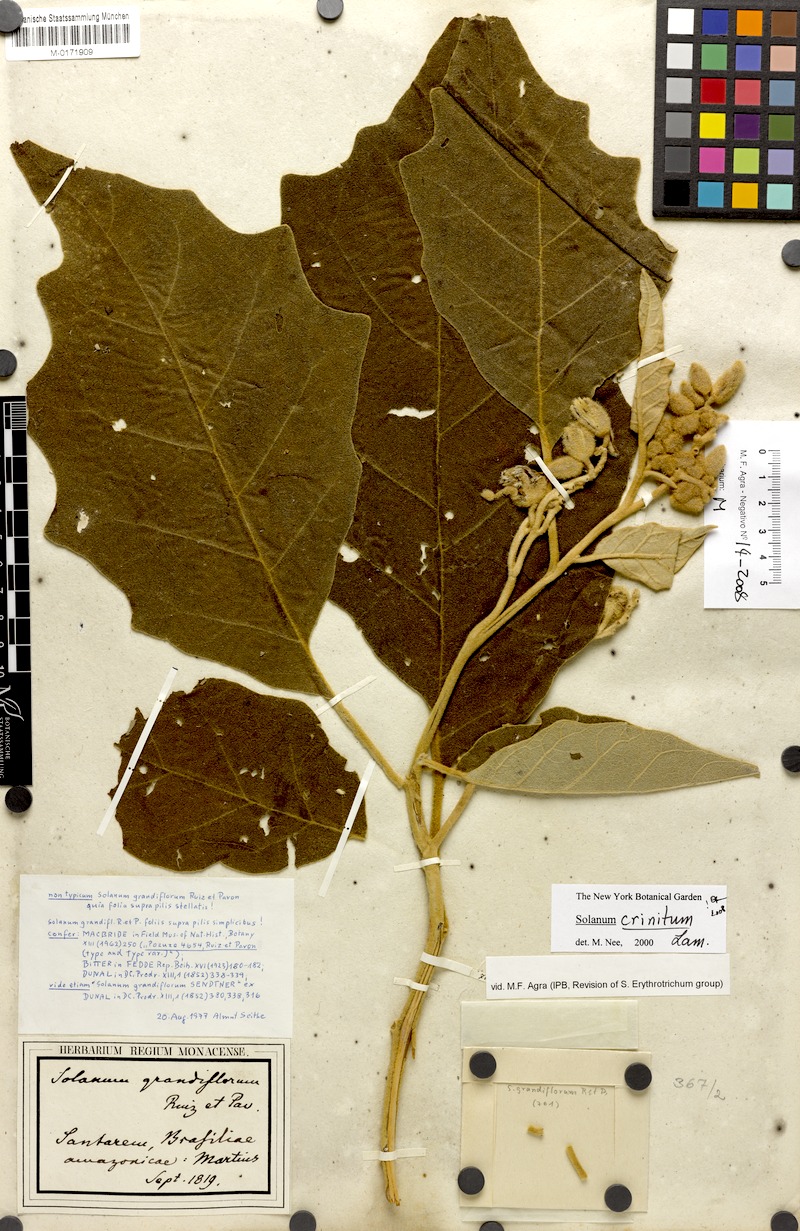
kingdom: Plantae
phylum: Tracheophyta
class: Magnoliopsida
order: Solanales
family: Solanaceae
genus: Solanum
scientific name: Solanum crinitum
